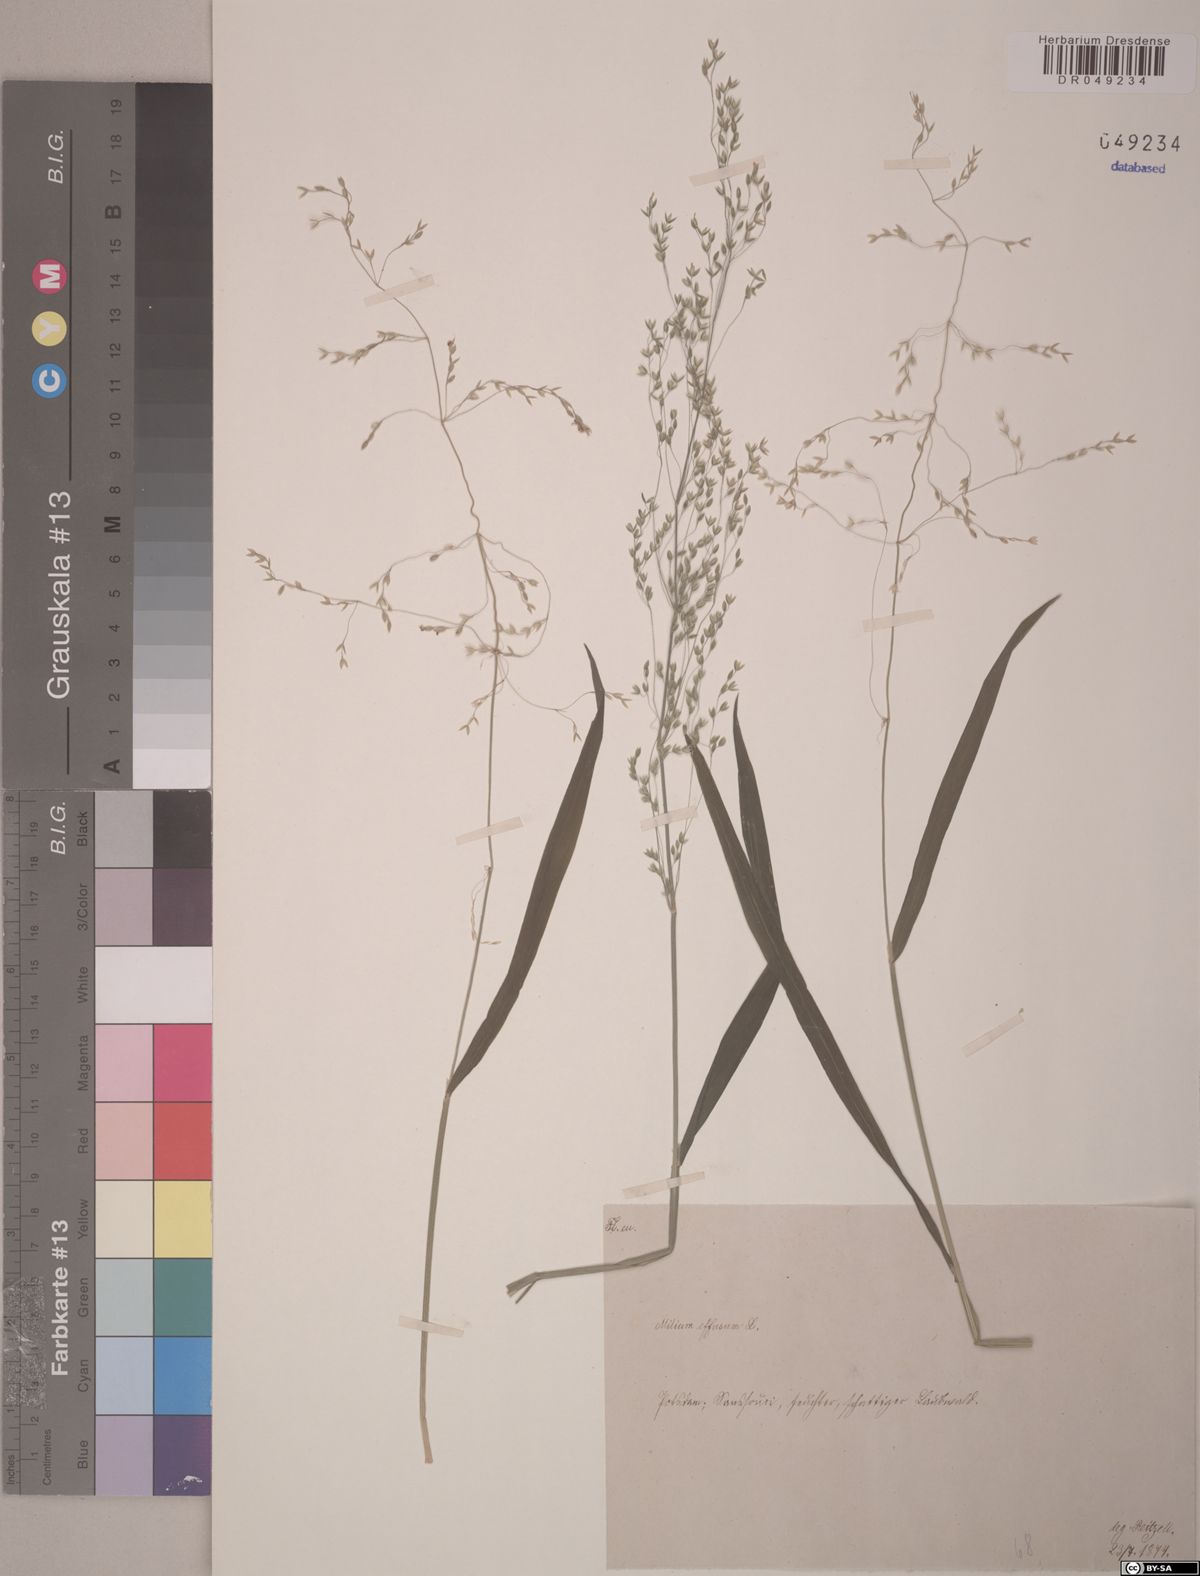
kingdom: Plantae
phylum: Tracheophyta
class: Liliopsida
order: Poales
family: Poaceae
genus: Milium
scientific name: Milium effusum
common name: Wood millet
